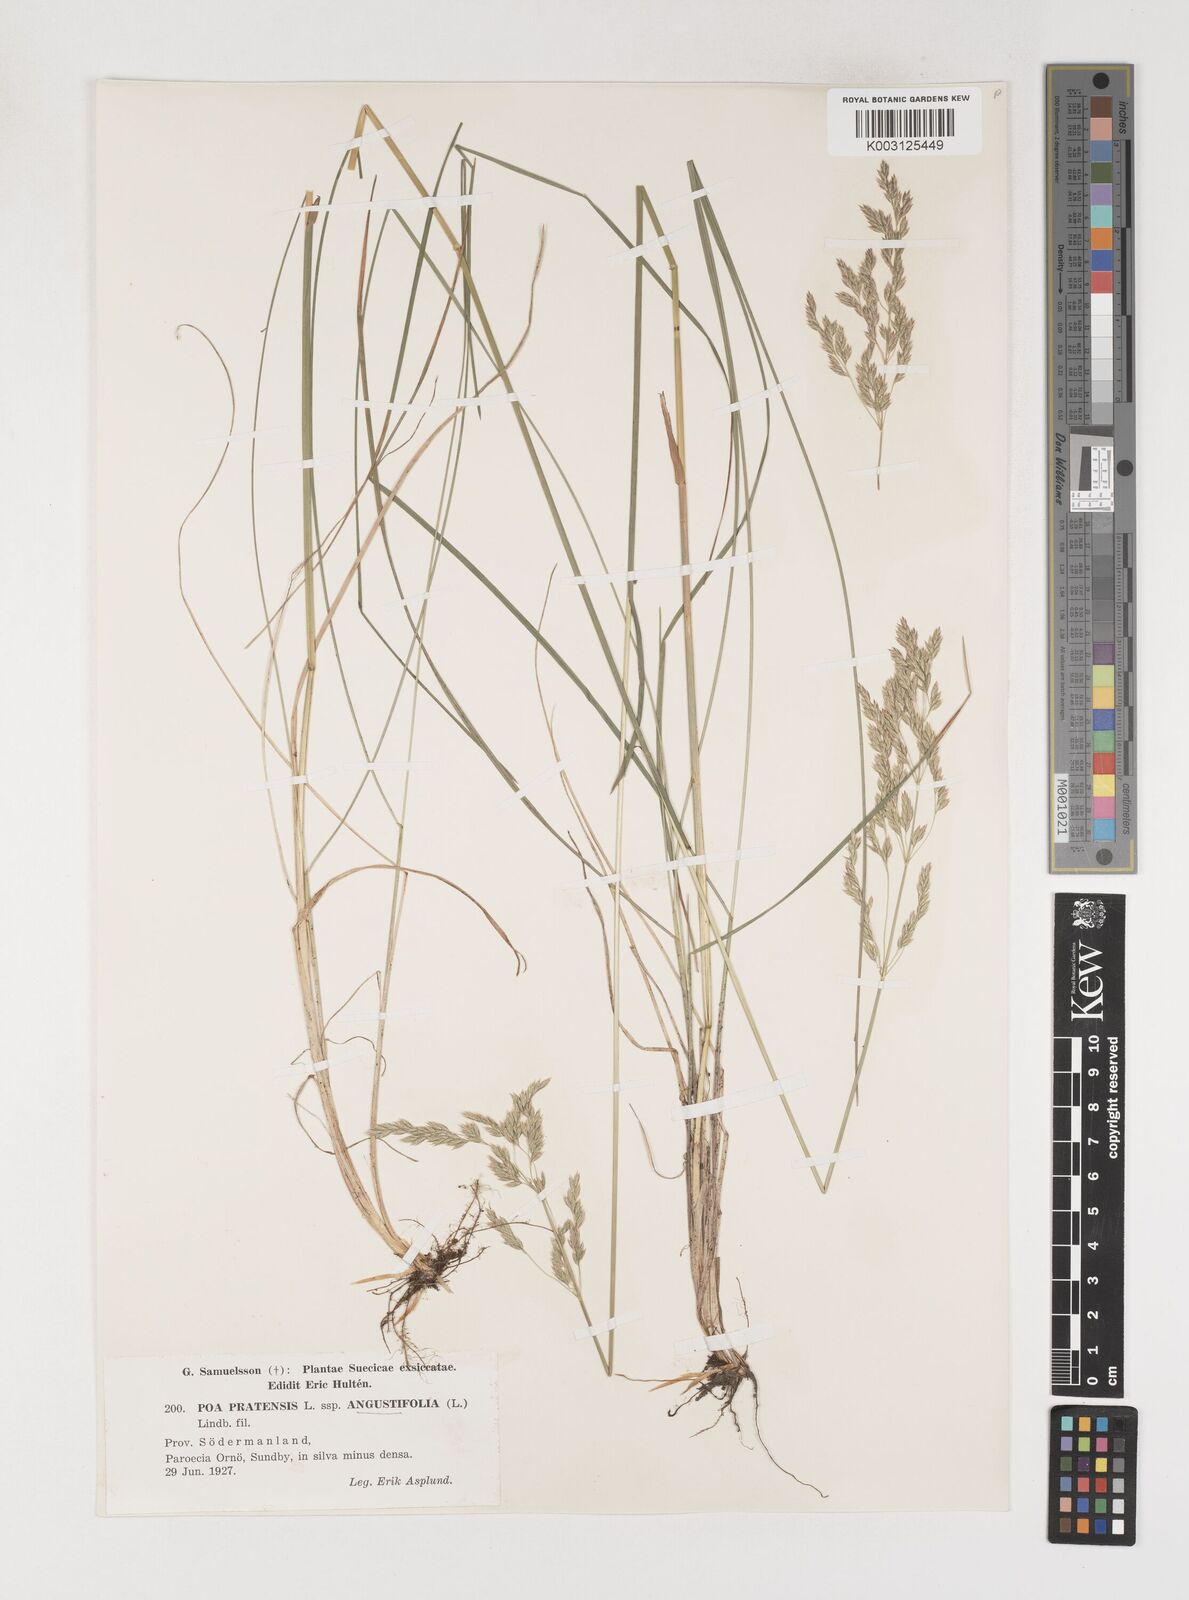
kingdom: Plantae
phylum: Tracheophyta
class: Liliopsida
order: Poales
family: Poaceae
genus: Poa
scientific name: Poa pratensis
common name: Kentucky bluegrass
